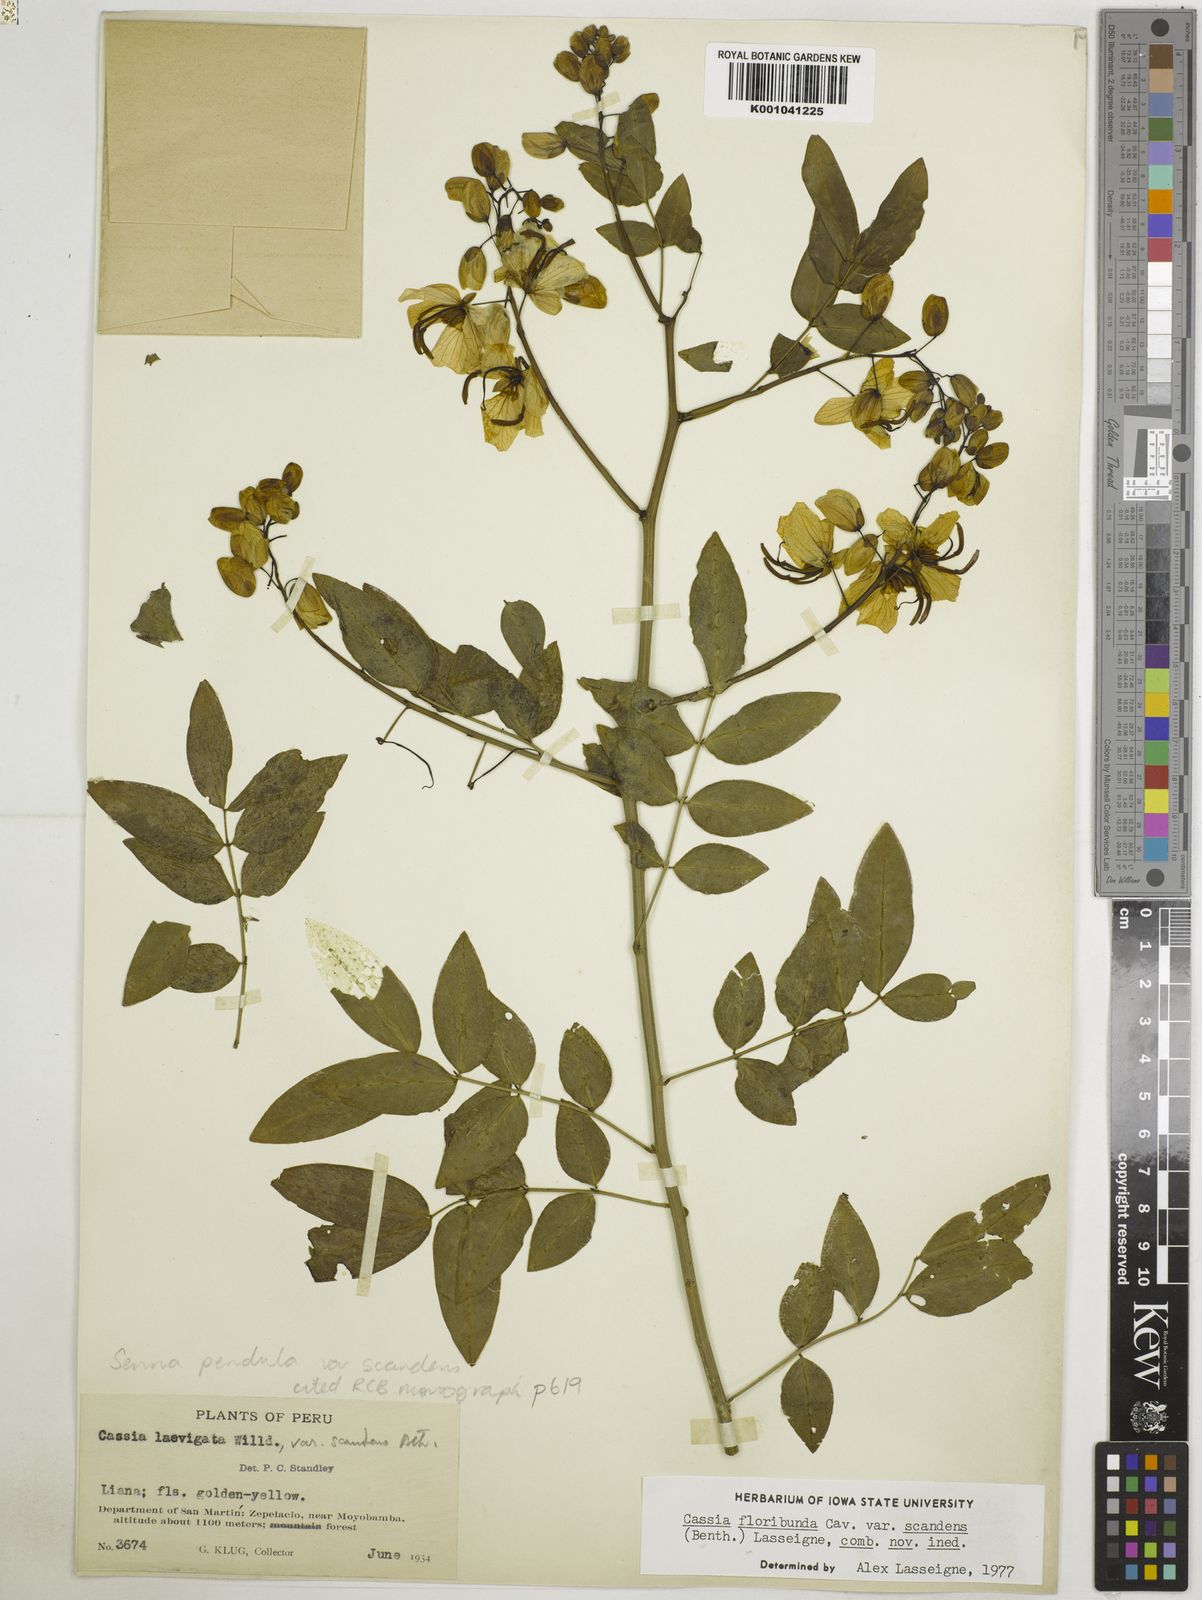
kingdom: Plantae
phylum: Tracheophyta
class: Magnoliopsida
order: Fabales
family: Fabaceae
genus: Senna
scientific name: Senna pendula
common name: Easter cassia
